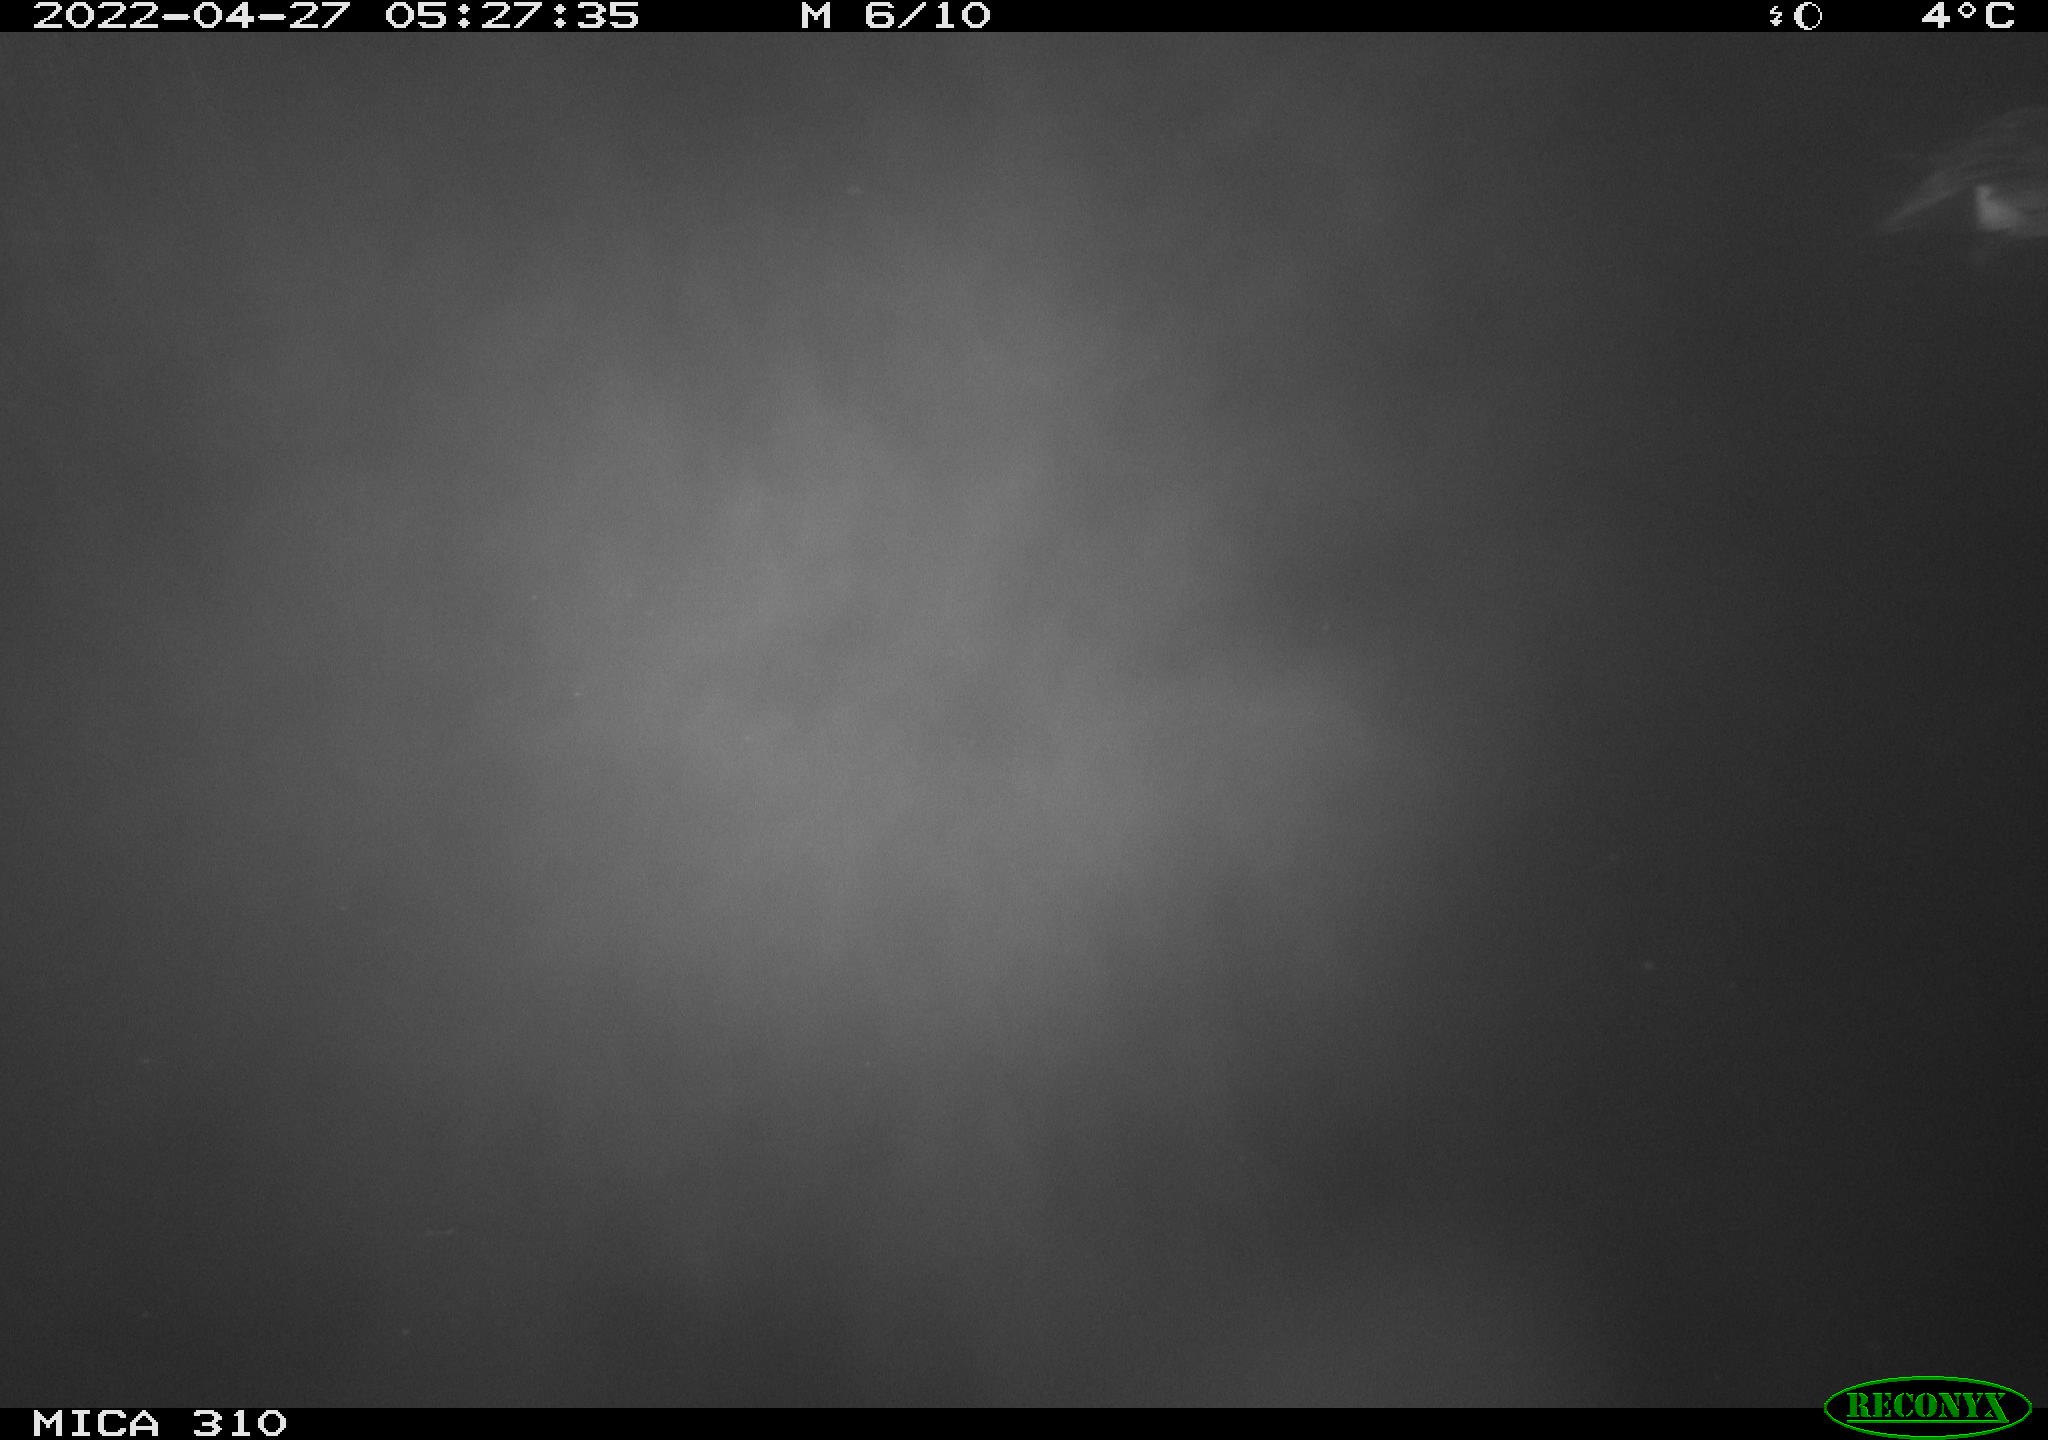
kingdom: Animalia
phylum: Chordata
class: Aves
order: Anseriformes
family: Anatidae
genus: Mareca
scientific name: Mareca strepera
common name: Gadwall
